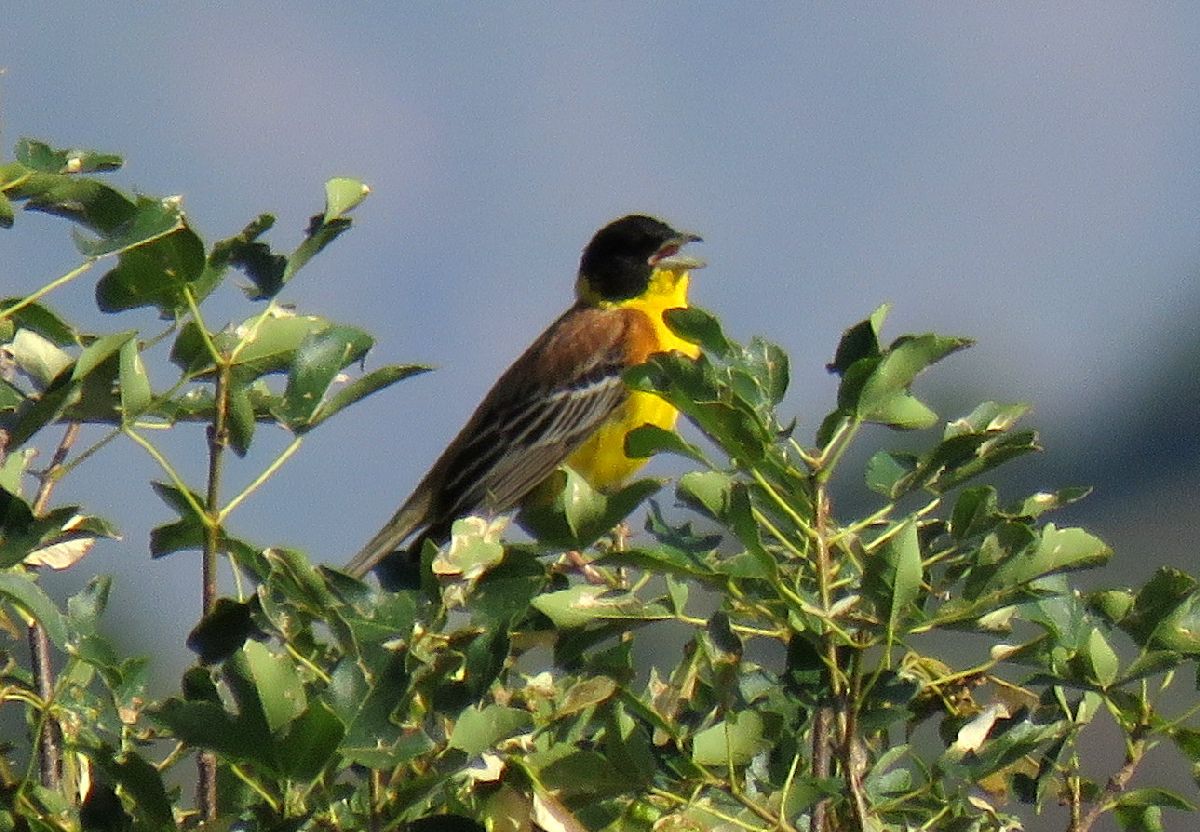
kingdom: Animalia
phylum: Chordata
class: Aves
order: Passeriformes
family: Emberizidae
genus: Emberiza
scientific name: Emberiza melanocephala
